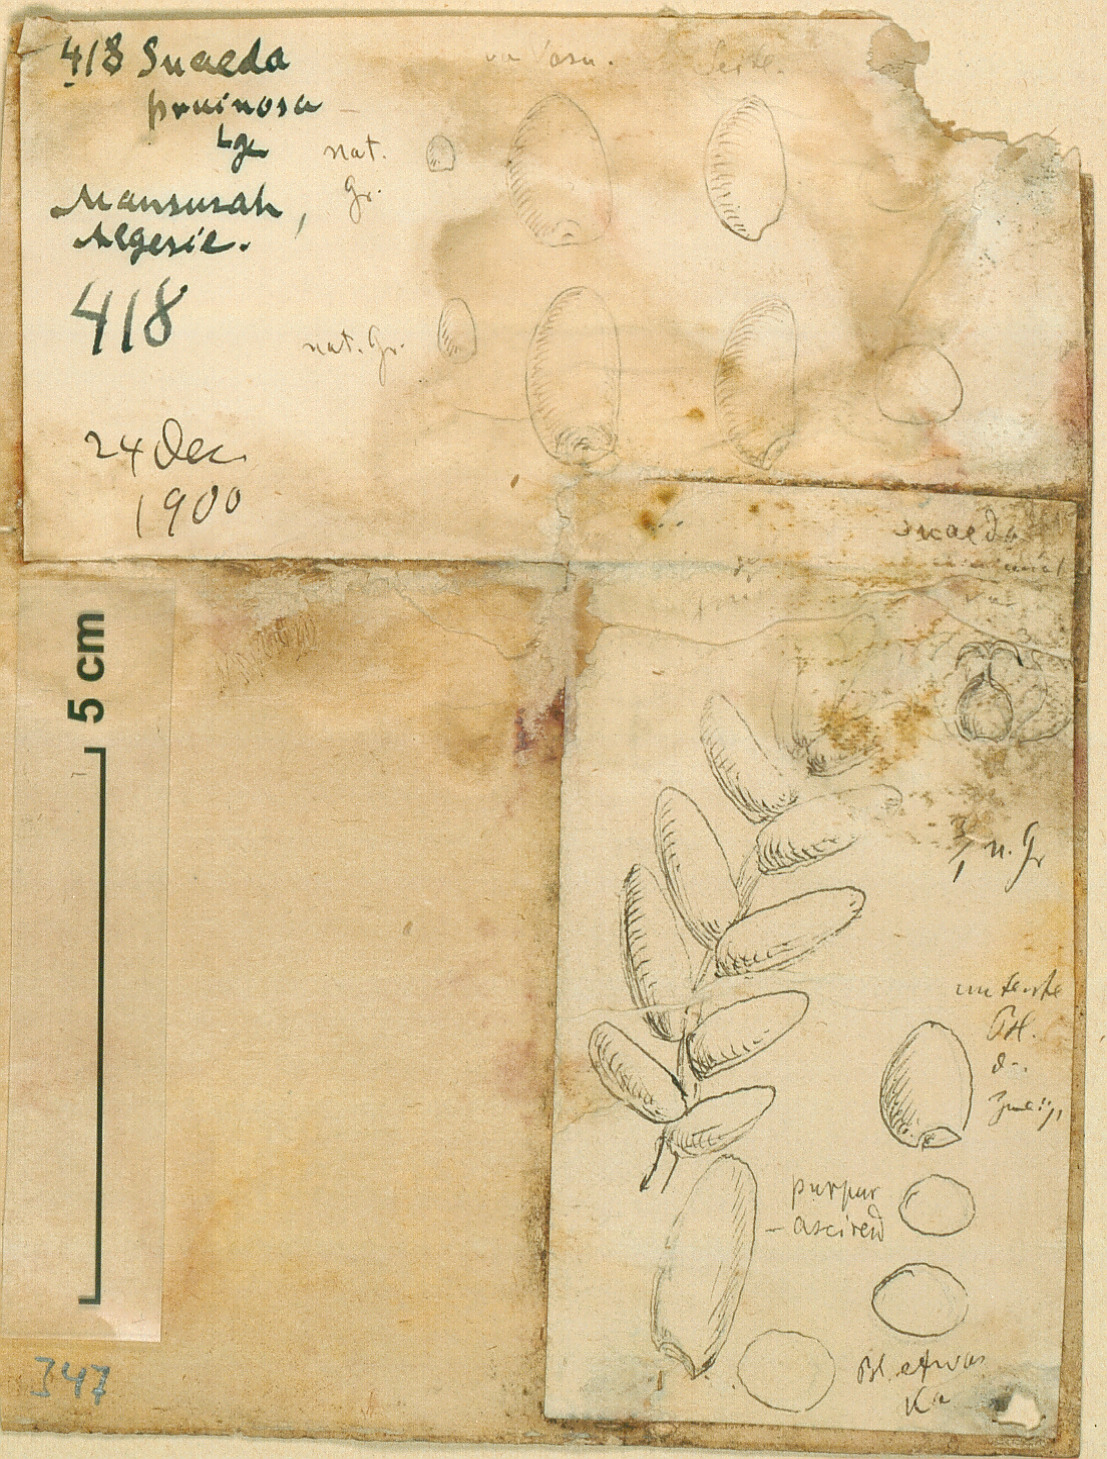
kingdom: Plantae
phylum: Tracheophyta
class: Magnoliopsida
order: Caryophyllales
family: Amaranthaceae
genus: Suaeda
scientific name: Suaeda vermiculata
